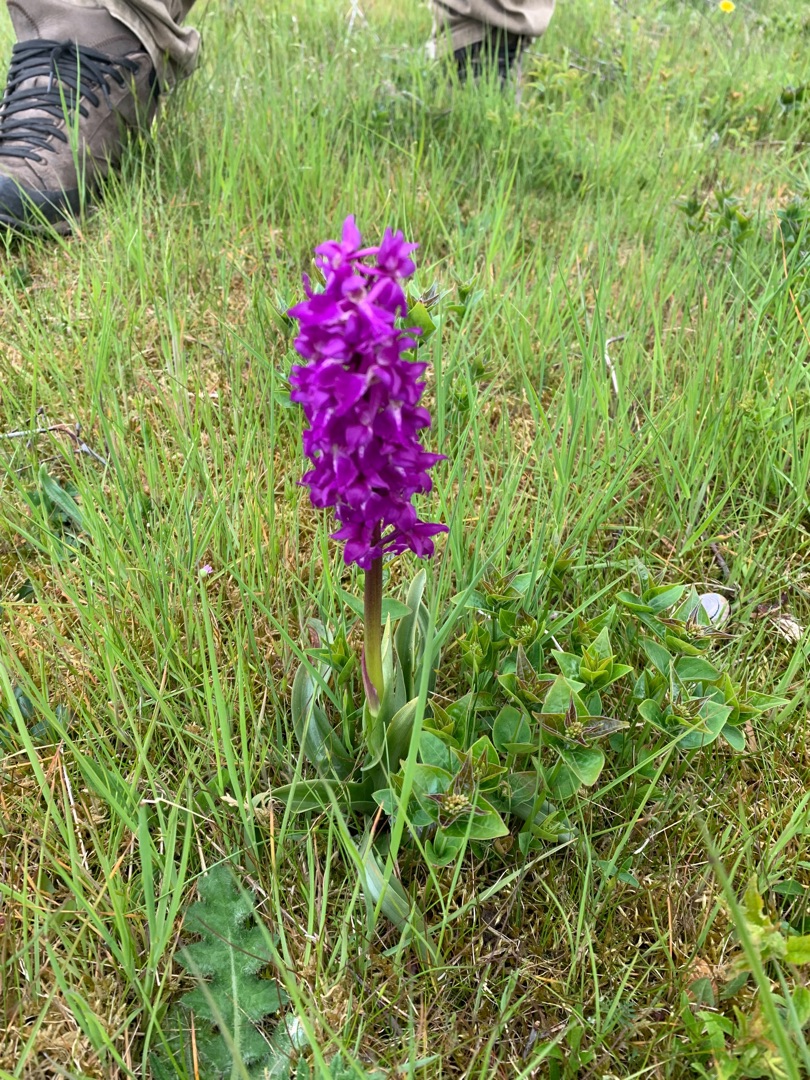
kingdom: Plantae
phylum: Tracheophyta
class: Liliopsida
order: Asparagales
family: Orchidaceae
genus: Orchis
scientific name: Orchis mascula
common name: Tyndakset gøgeurt
